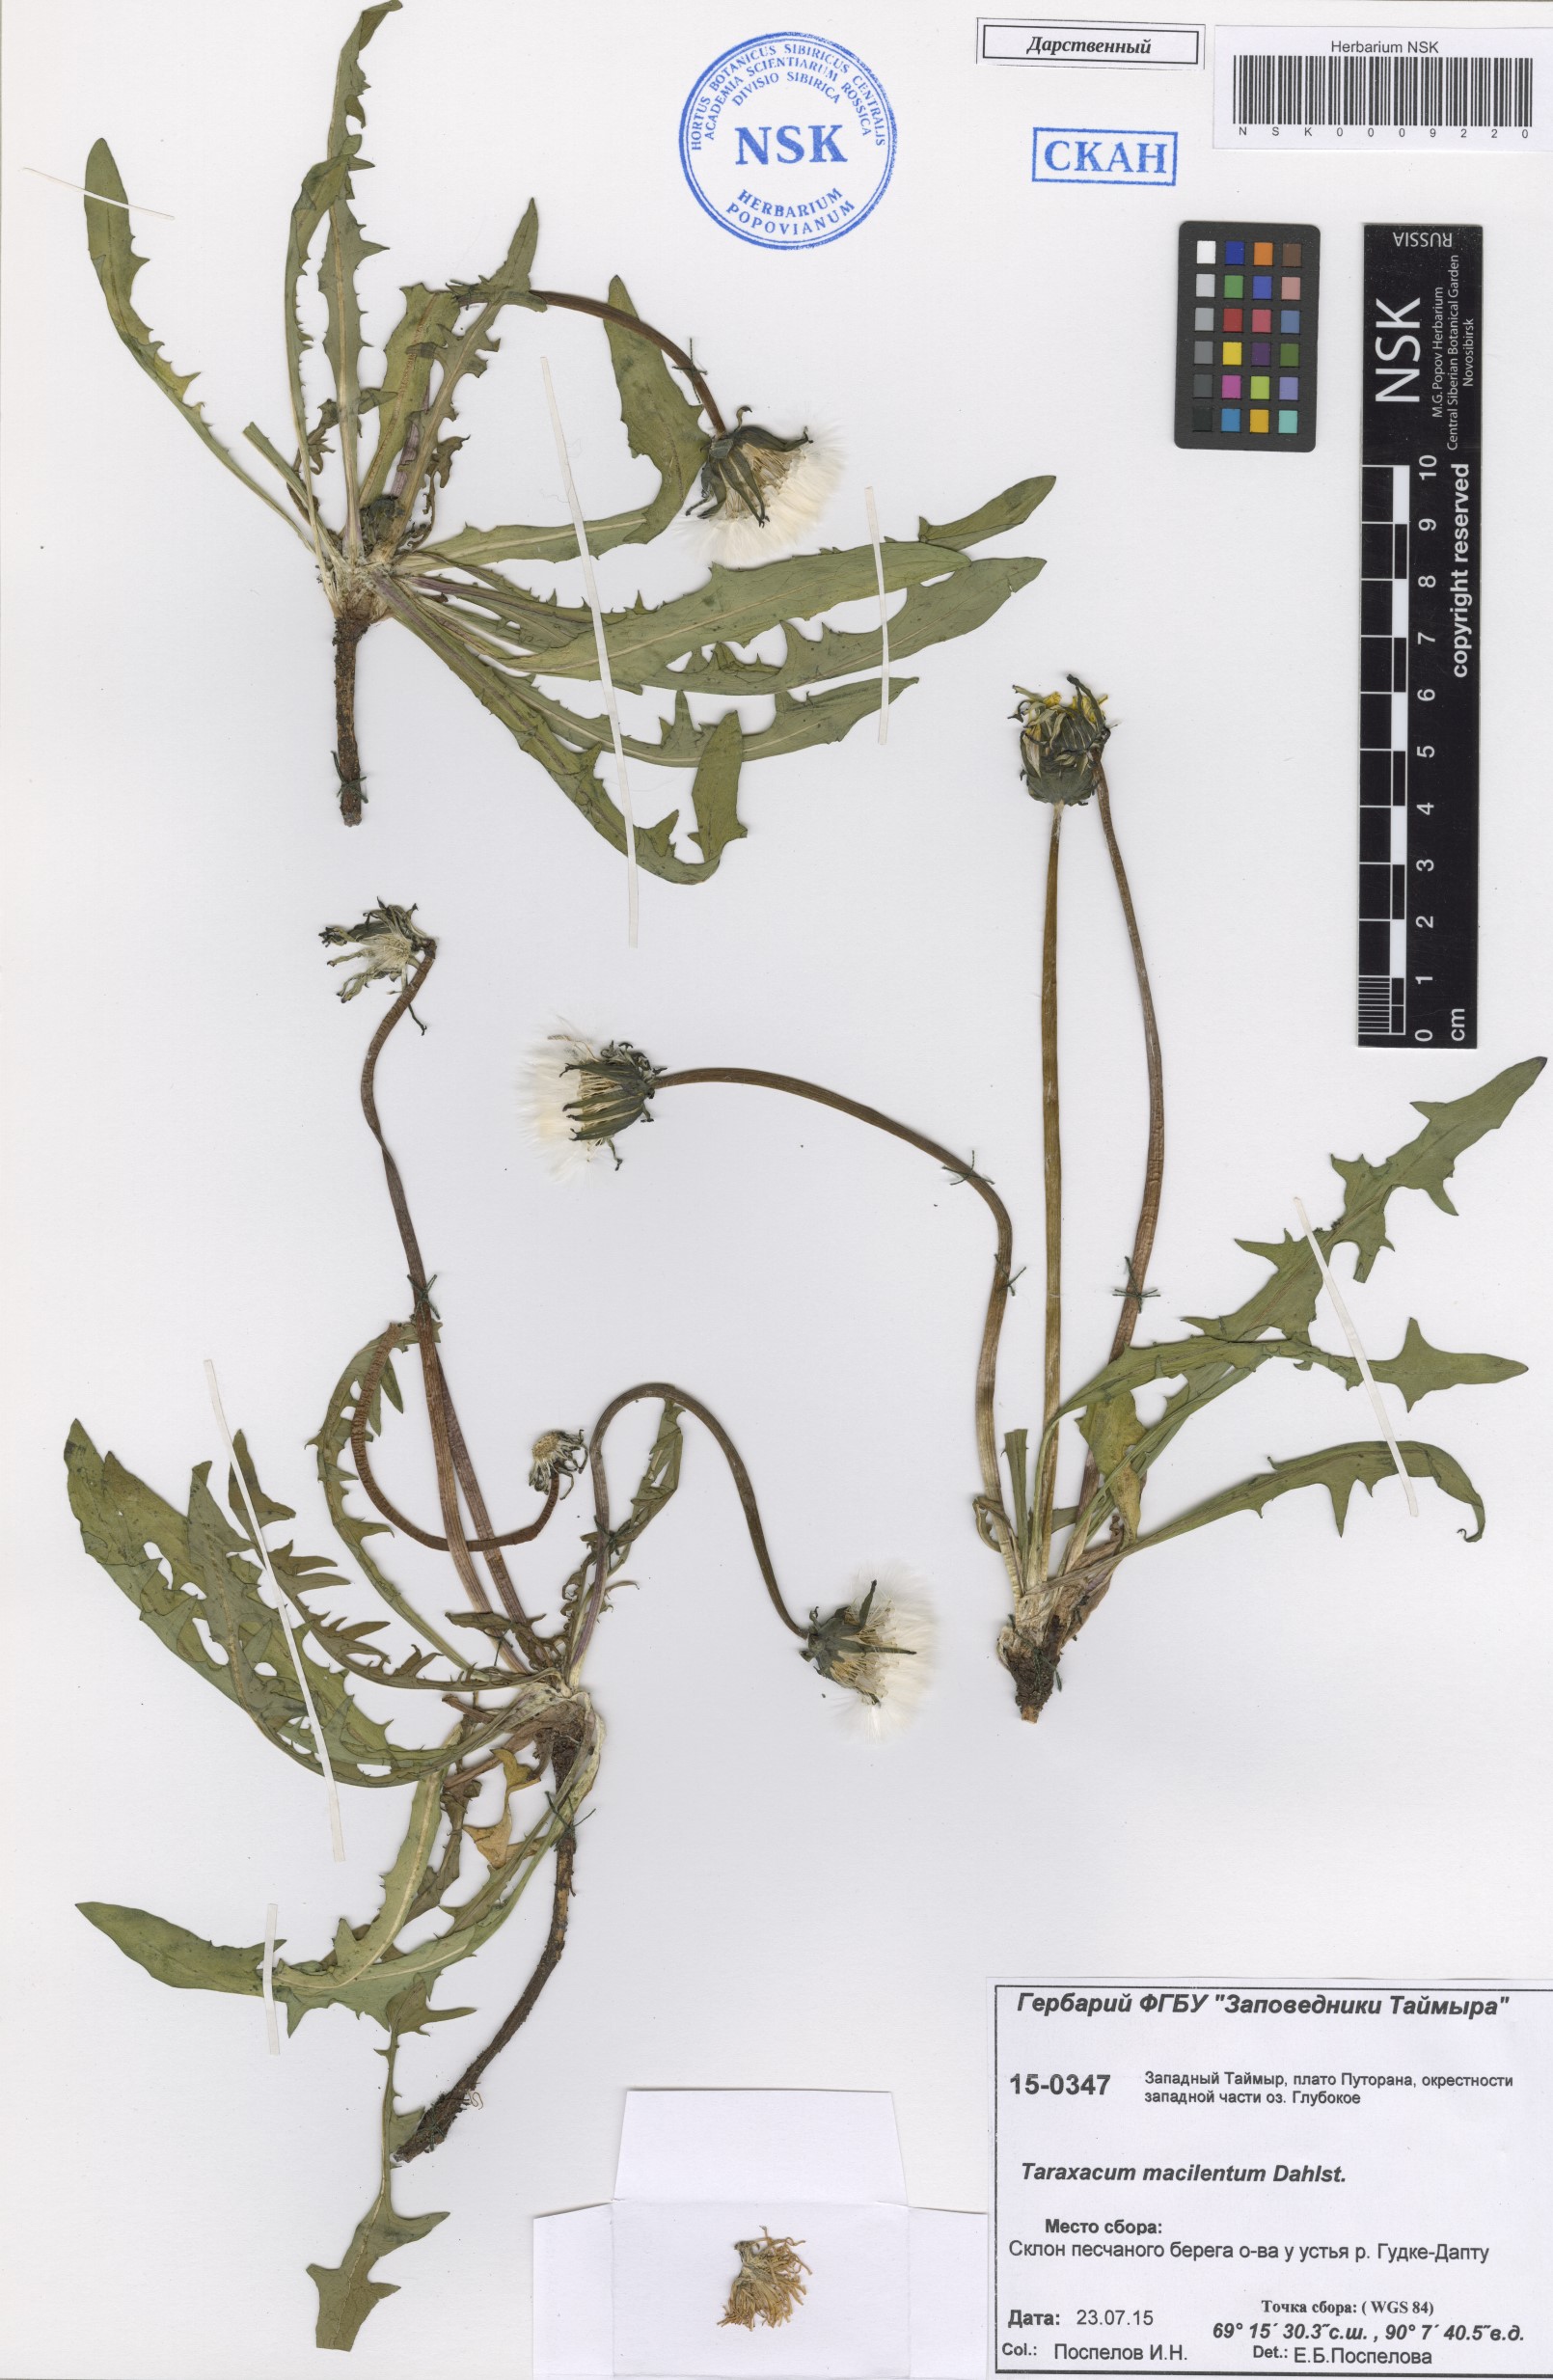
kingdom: Plantae
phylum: Tracheophyta
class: Magnoliopsida
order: Asterales
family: Asteraceae
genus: Taraxacum
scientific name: Taraxacum macilentum
